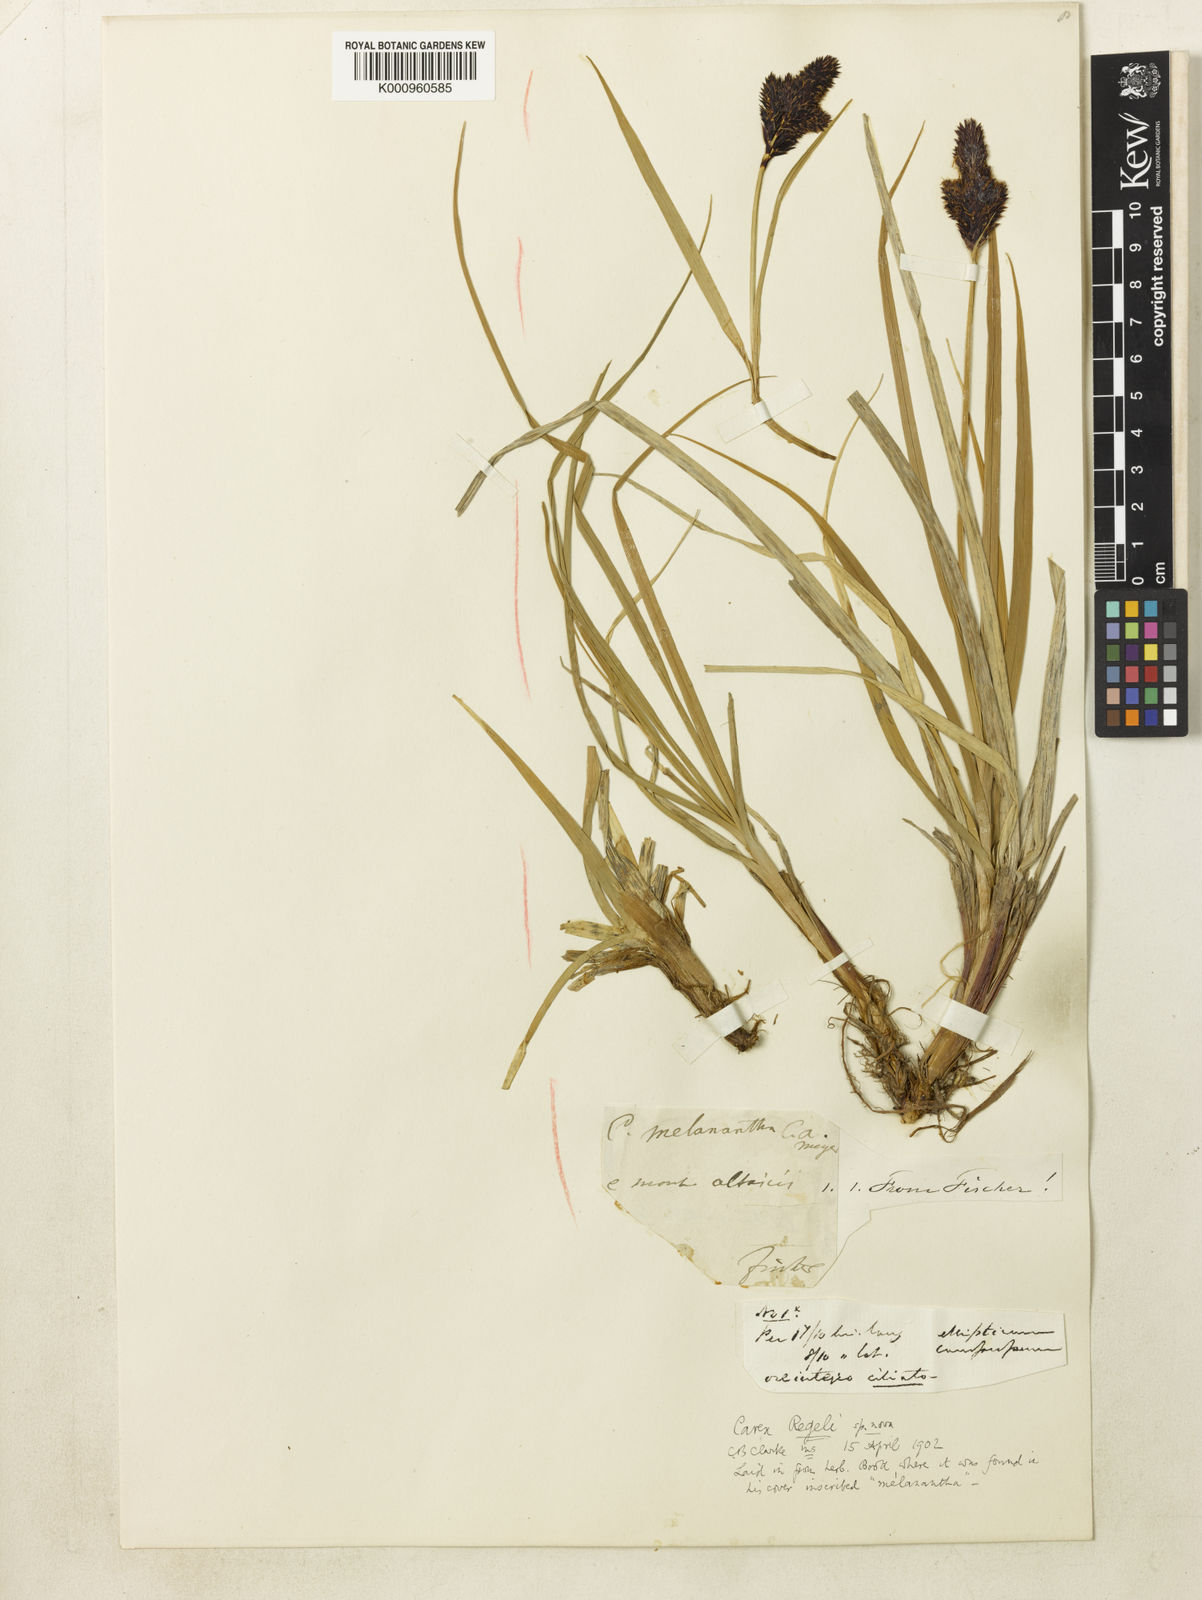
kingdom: Plantae
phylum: Tracheophyta
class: Liliopsida
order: Poales
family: Cyperaceae
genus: Carex
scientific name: Carex melanantha
